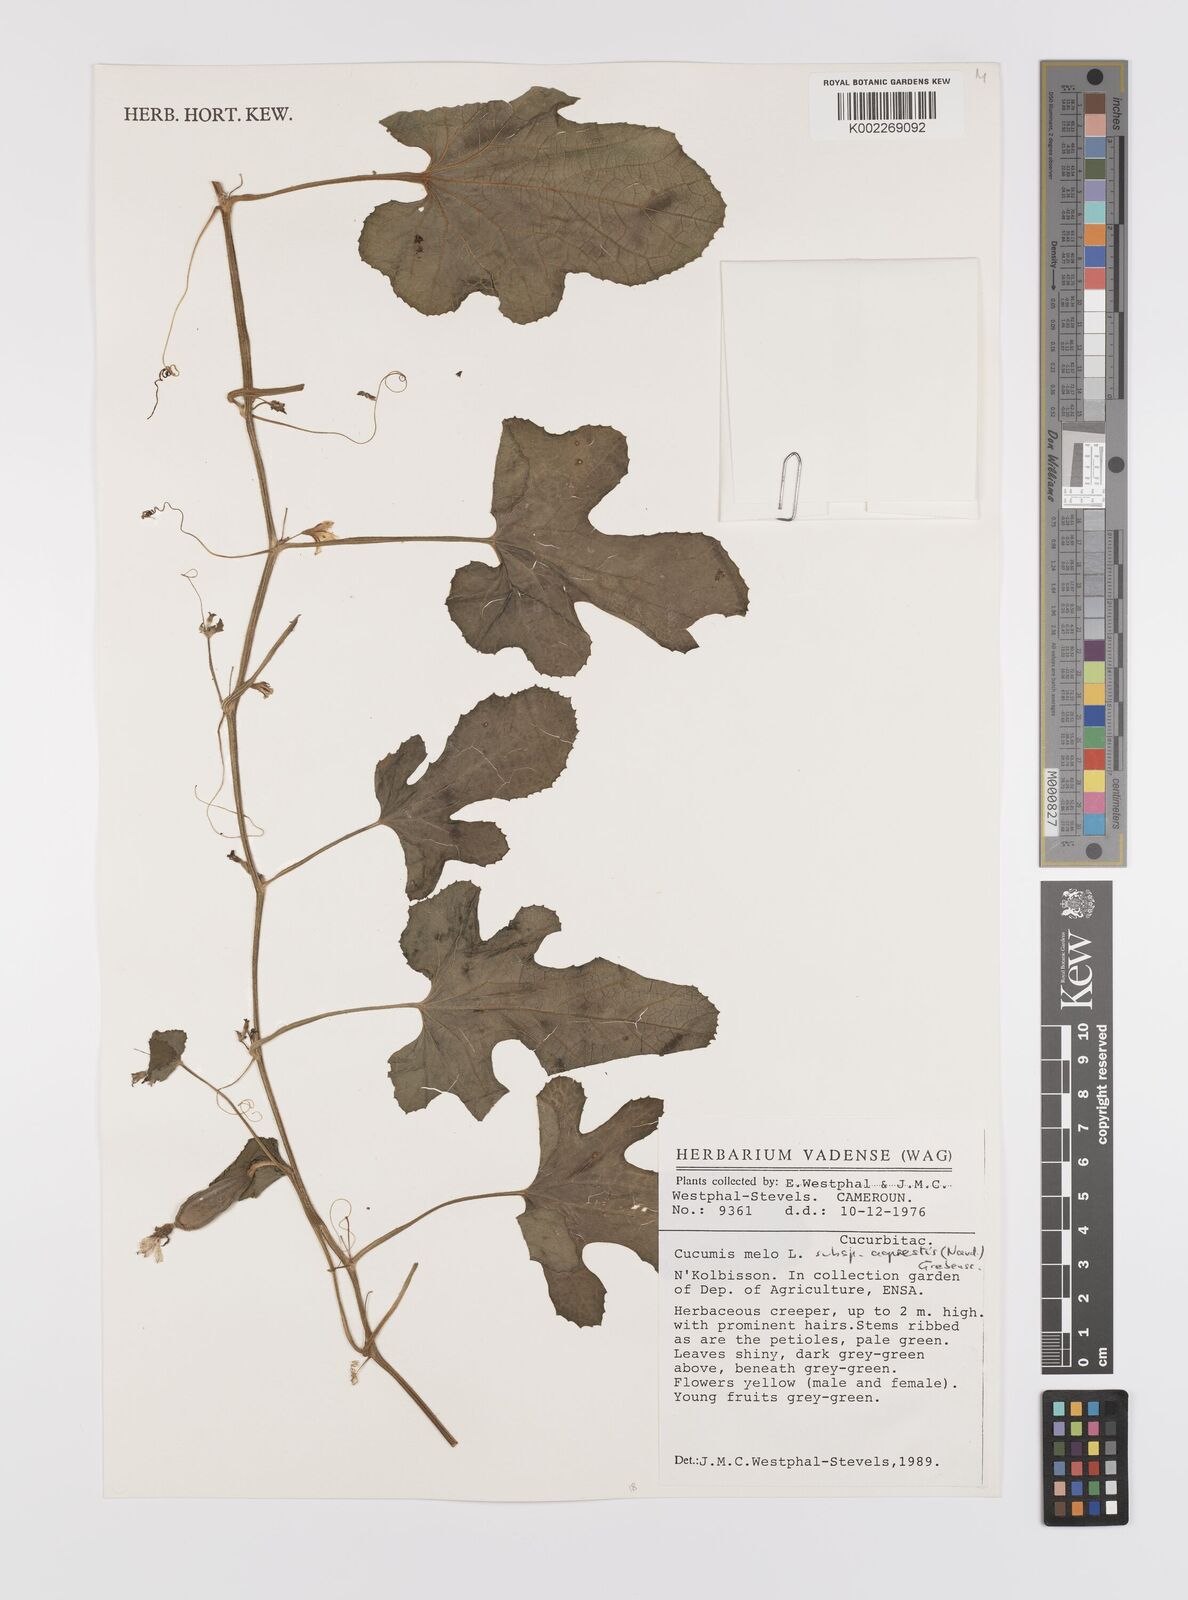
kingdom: Plantae
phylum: Tracheophyta
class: Magnoliopsida
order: Cucurbitales
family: Cucurbitaceae
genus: Cucumis
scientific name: Cucumis melo
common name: Melon
